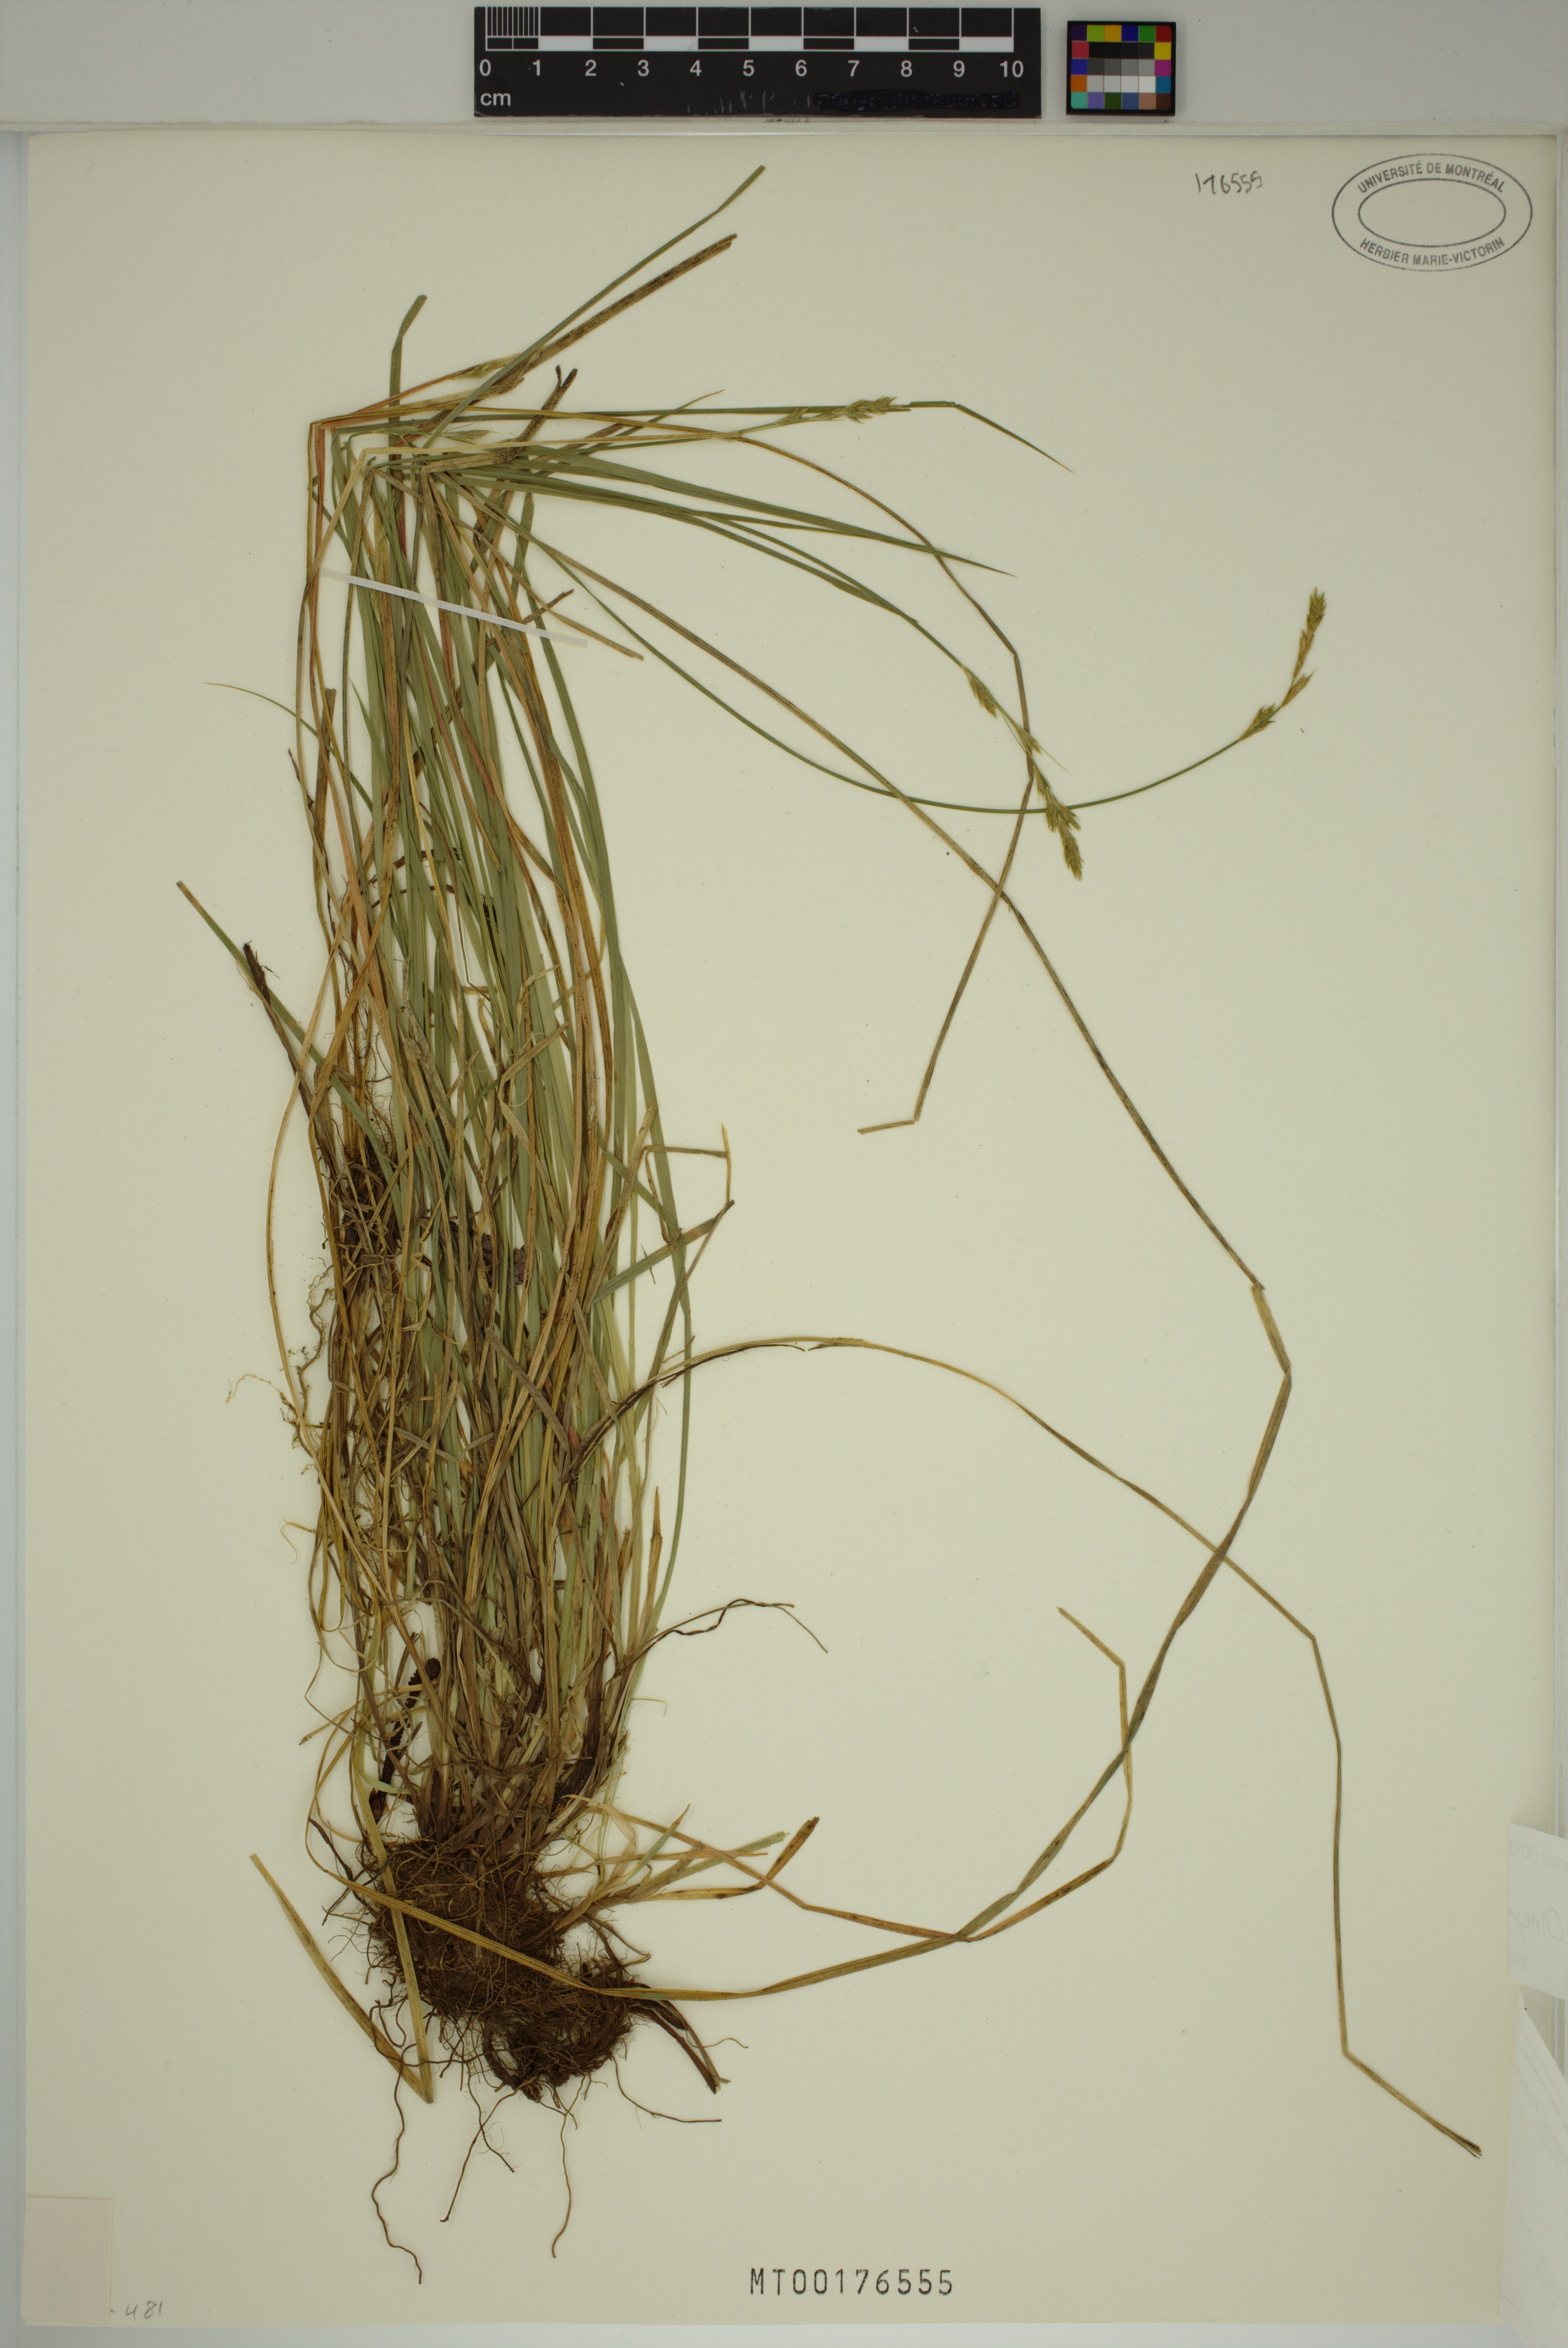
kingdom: Plantae
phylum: Tracheophyta
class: Liliopsida
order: Poales
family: Cyperaceae
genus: Carex
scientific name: Carex bolanderi
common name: Bolander's sedge
